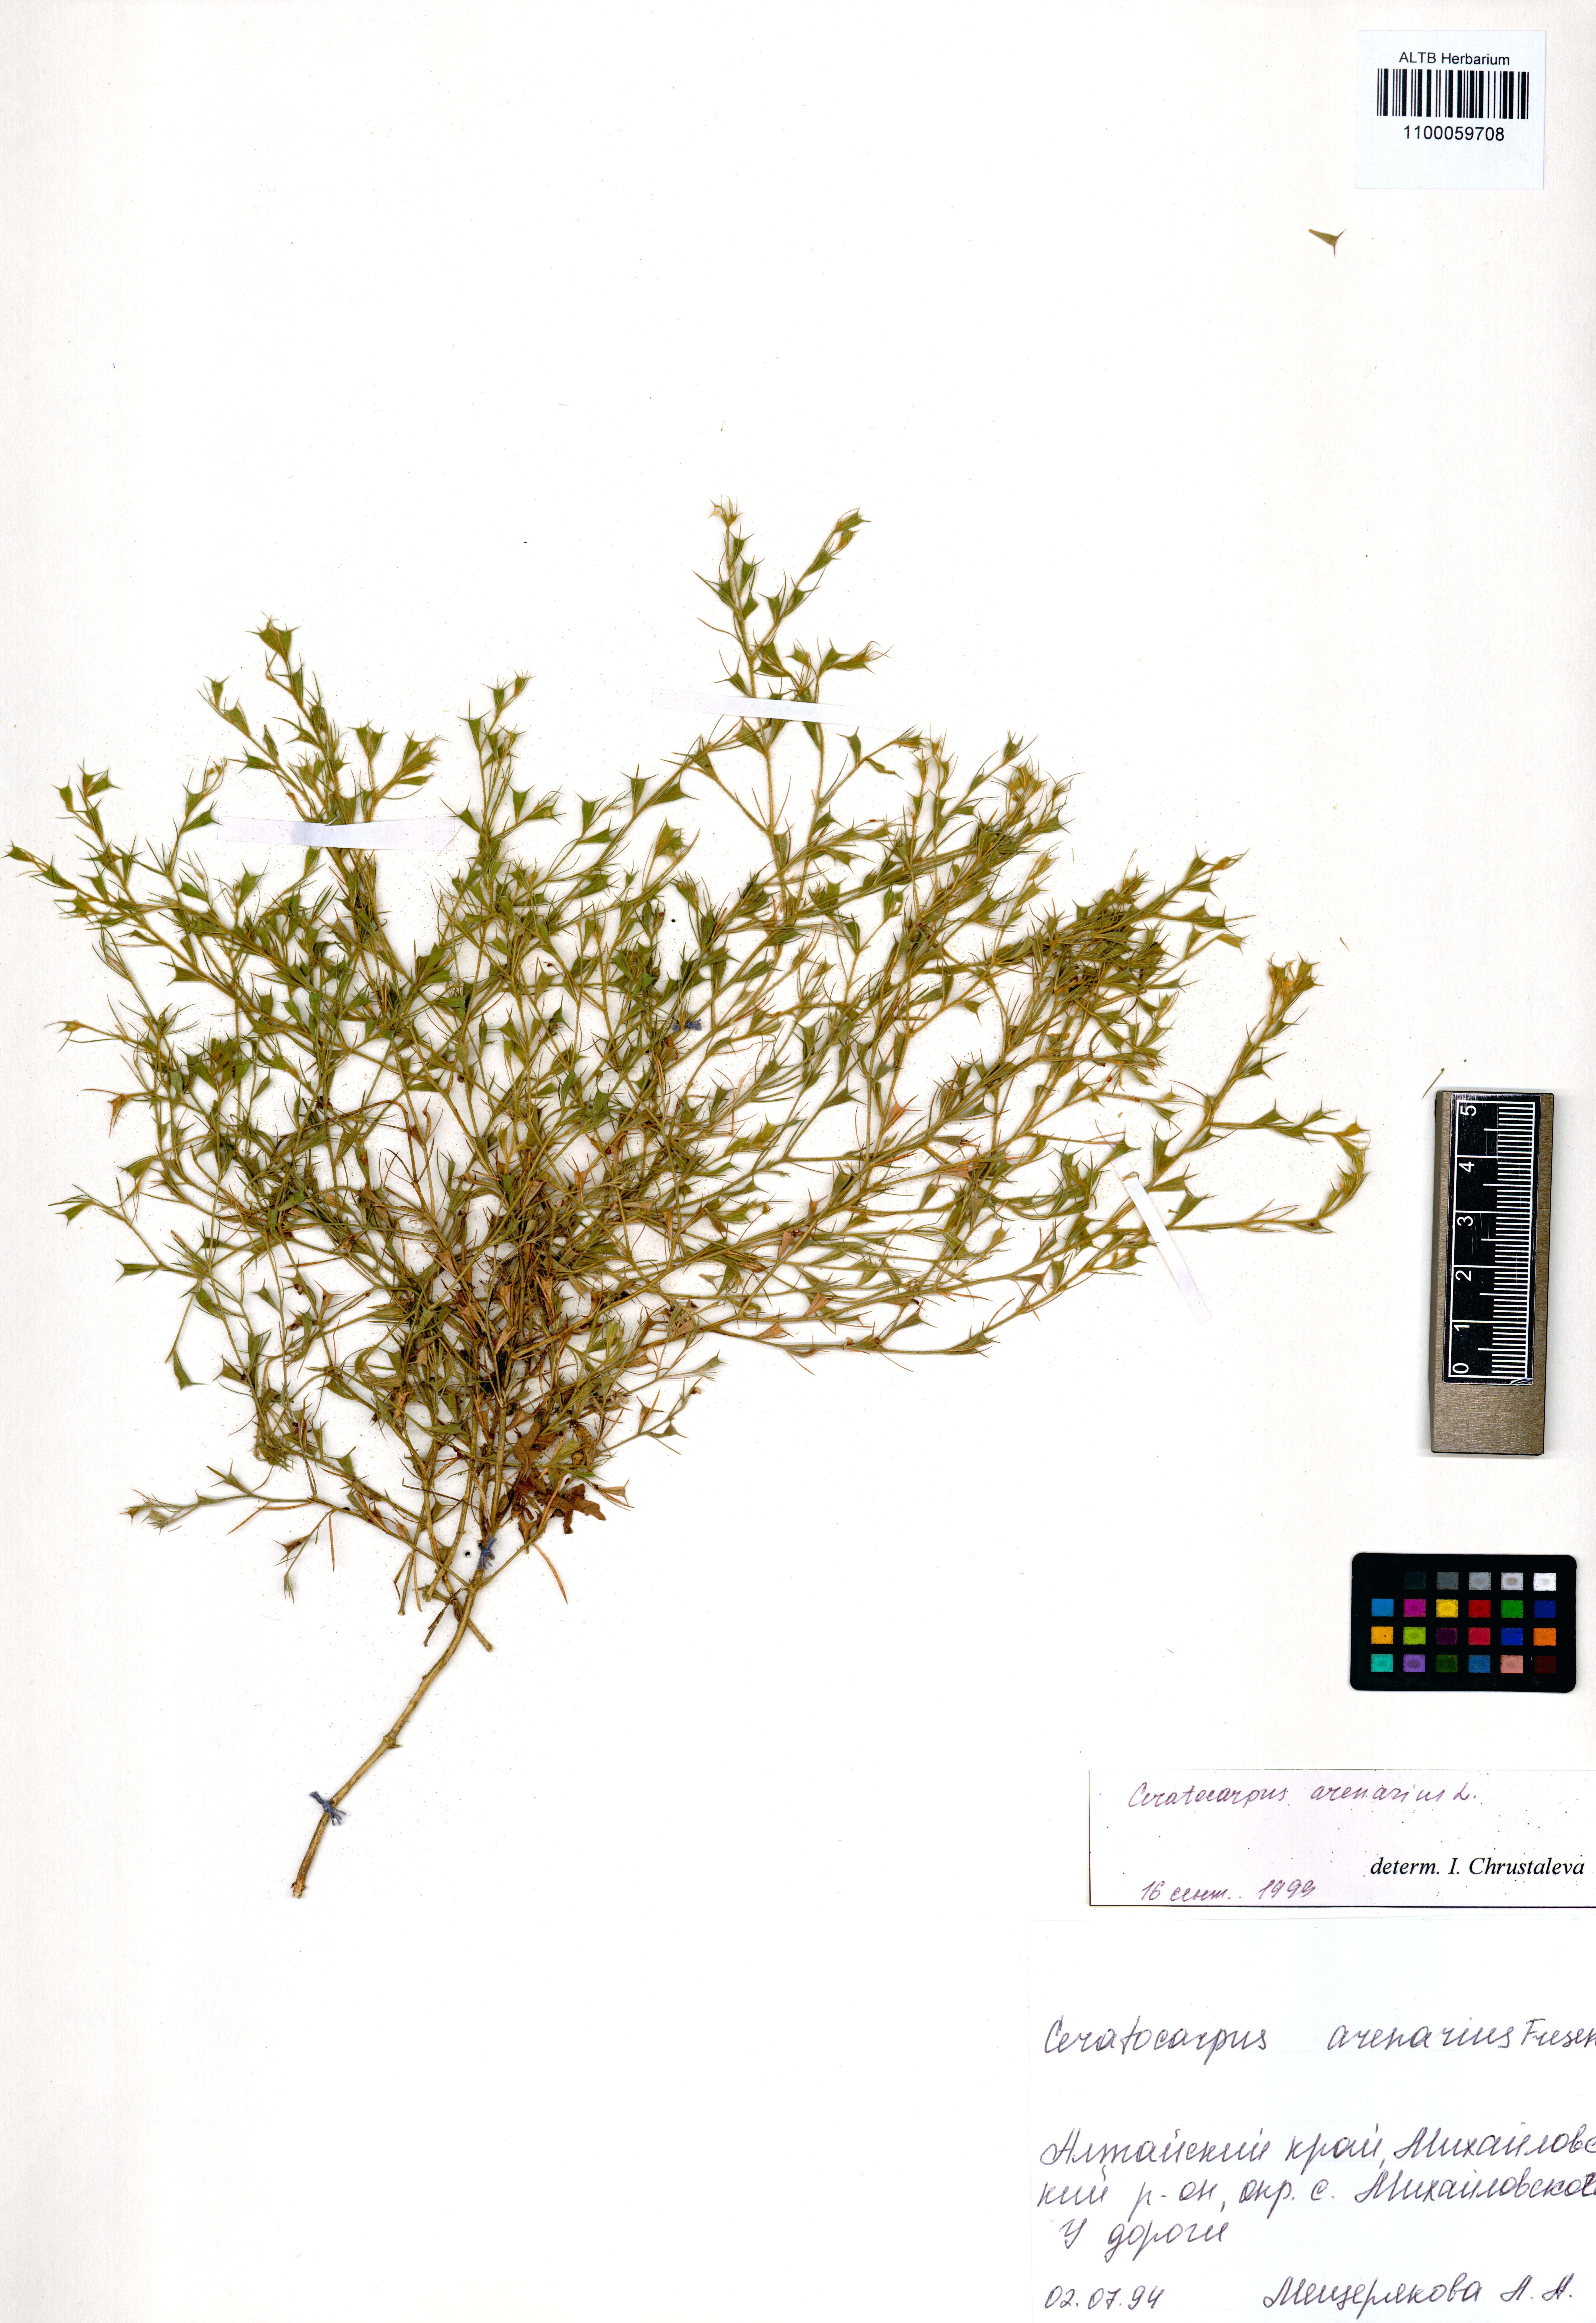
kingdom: Plantae
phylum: Tracheophyta
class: Magnoliopsida
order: Caryophyllales
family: Amaranthaceae
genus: Ceratocarpus
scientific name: Ceratocarpus arenarius
